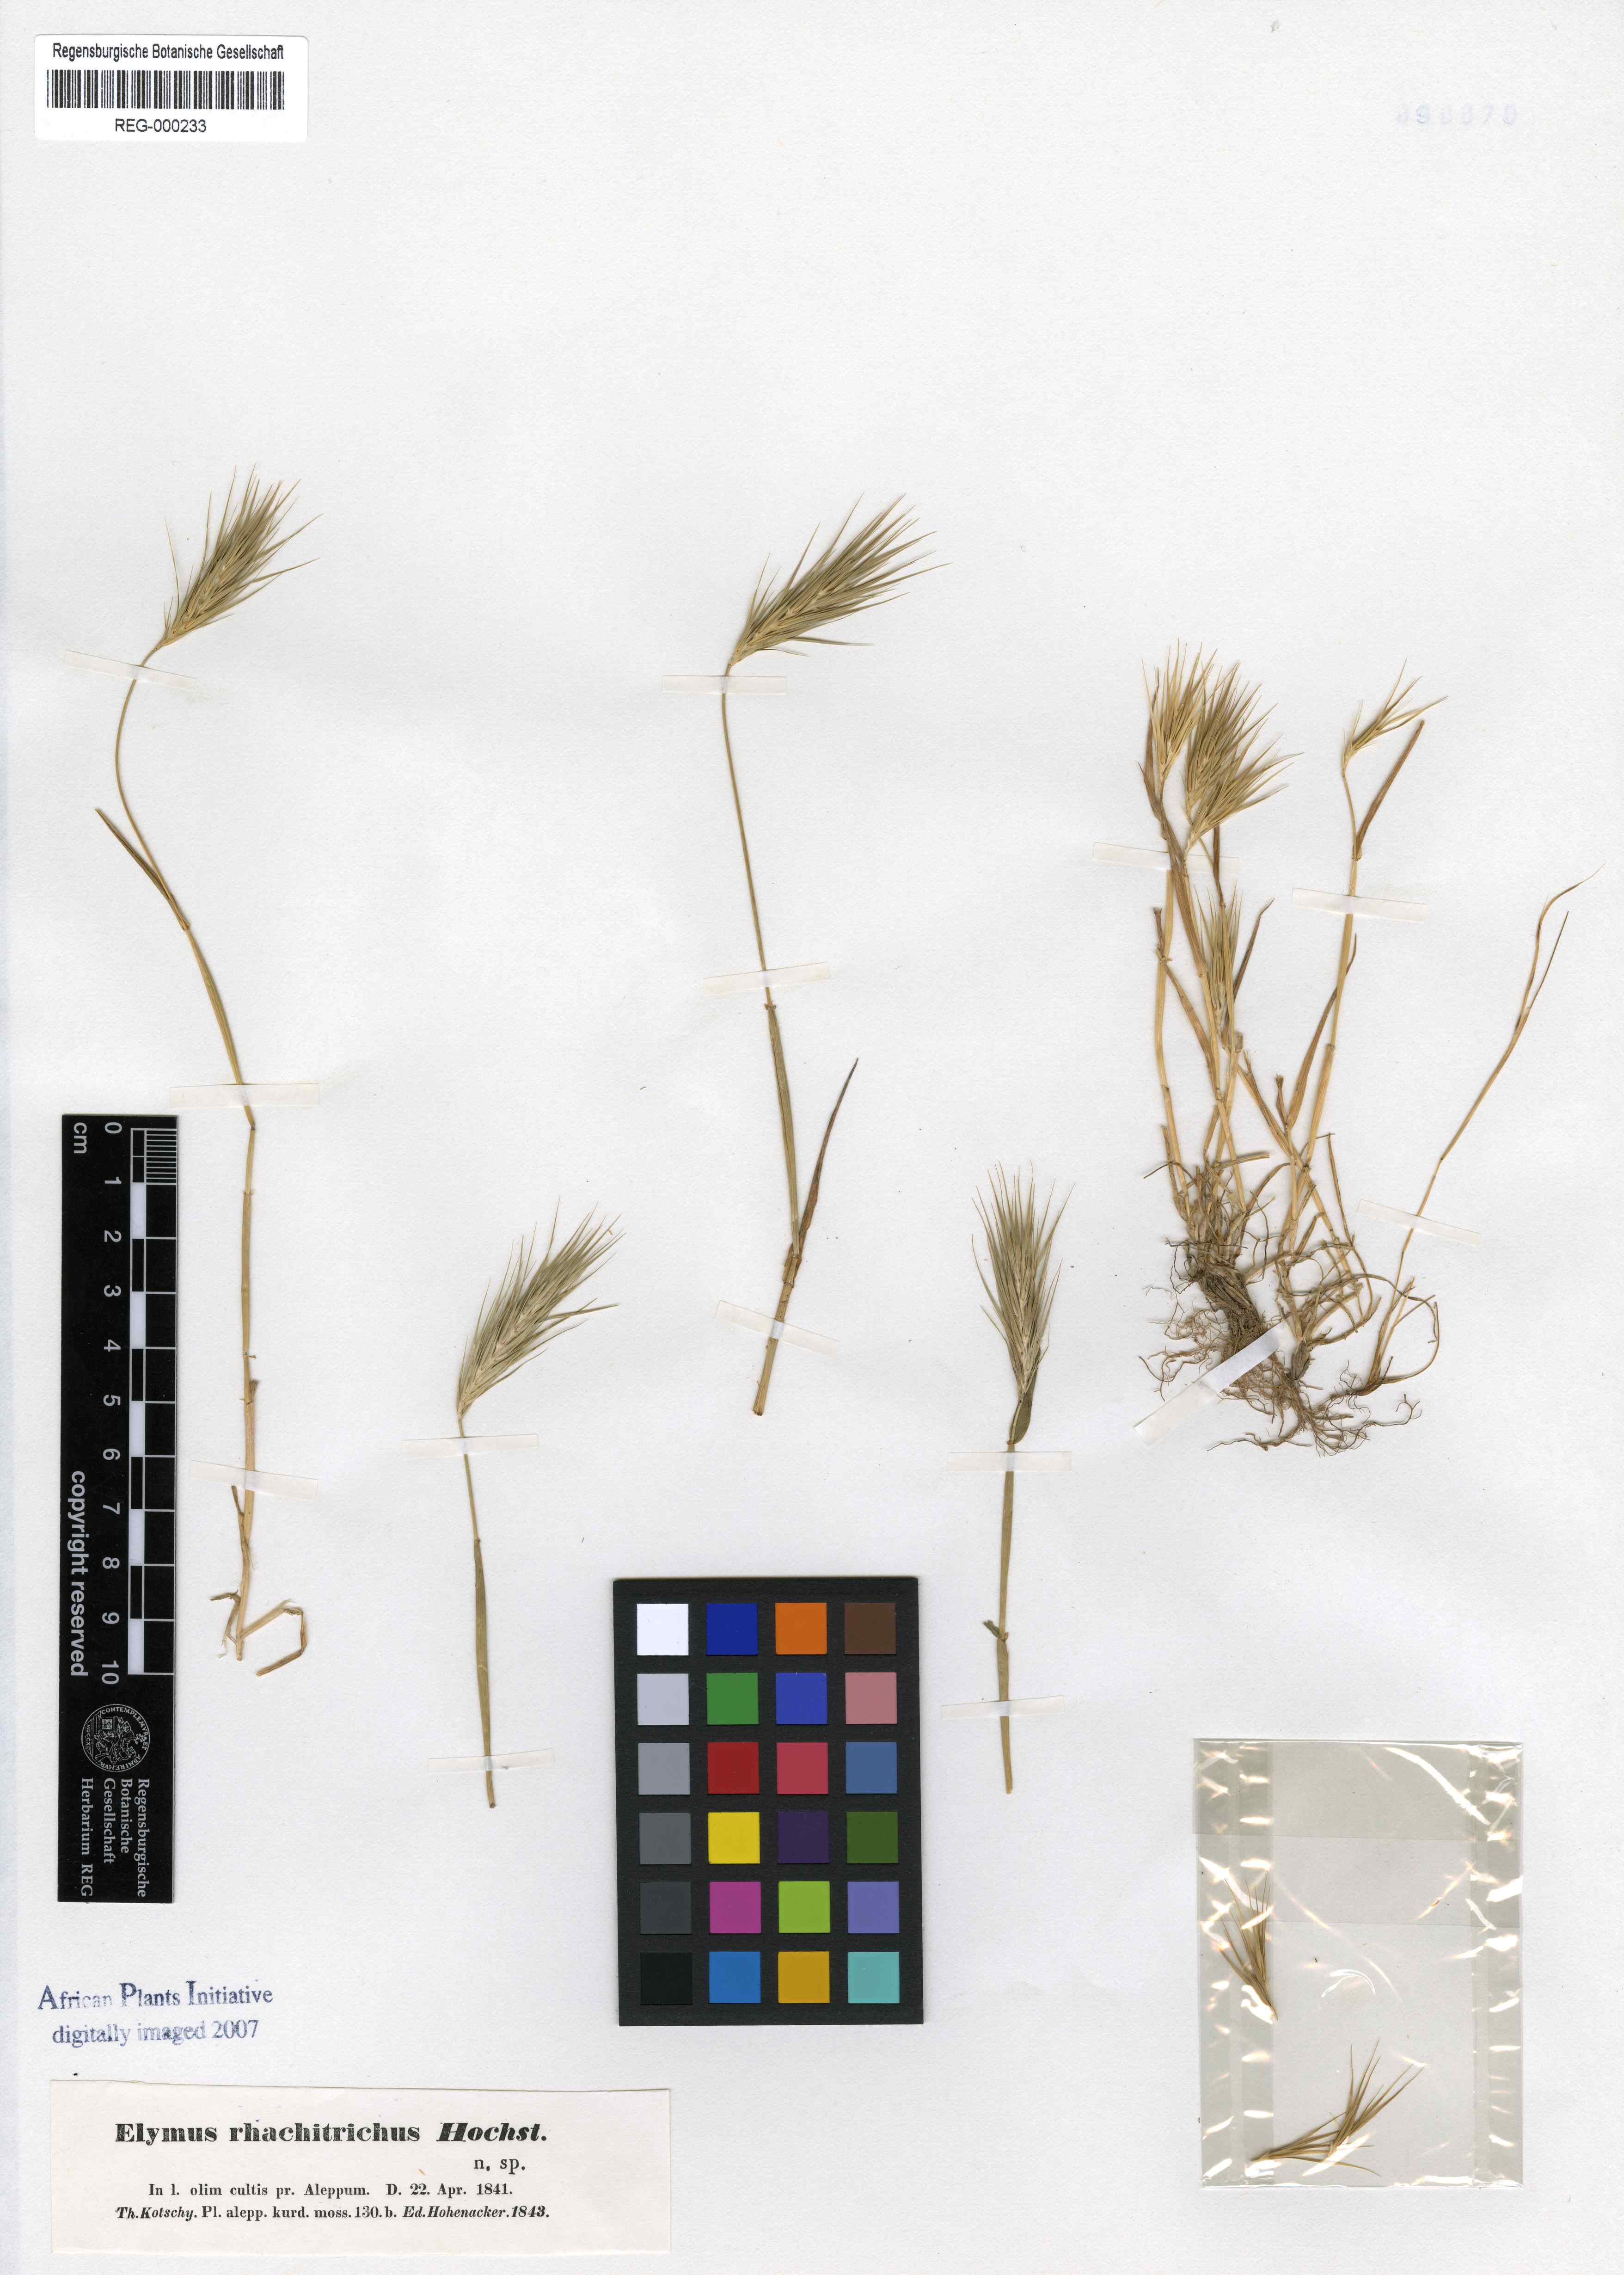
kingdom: Plantae
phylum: Tracheophyta
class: Liliopsida
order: Poales
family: Poaceae
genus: Crithopsis
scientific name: Crithopsis delileana
